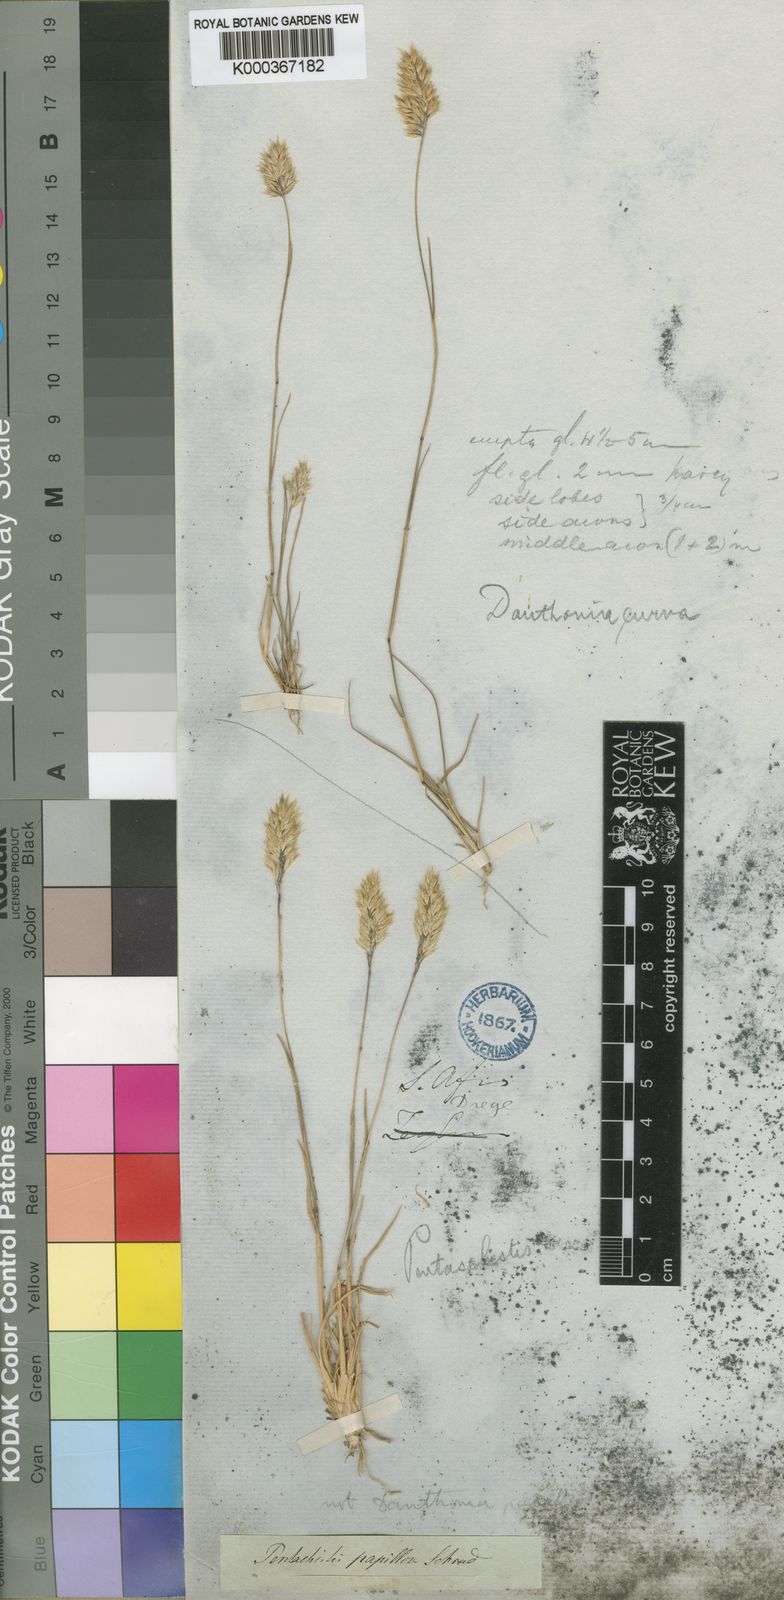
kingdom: Plantae
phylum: Tracheophyta
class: Liliopsida
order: Poales
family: Poaceae
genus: Pentameris
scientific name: Pentameris pallida
